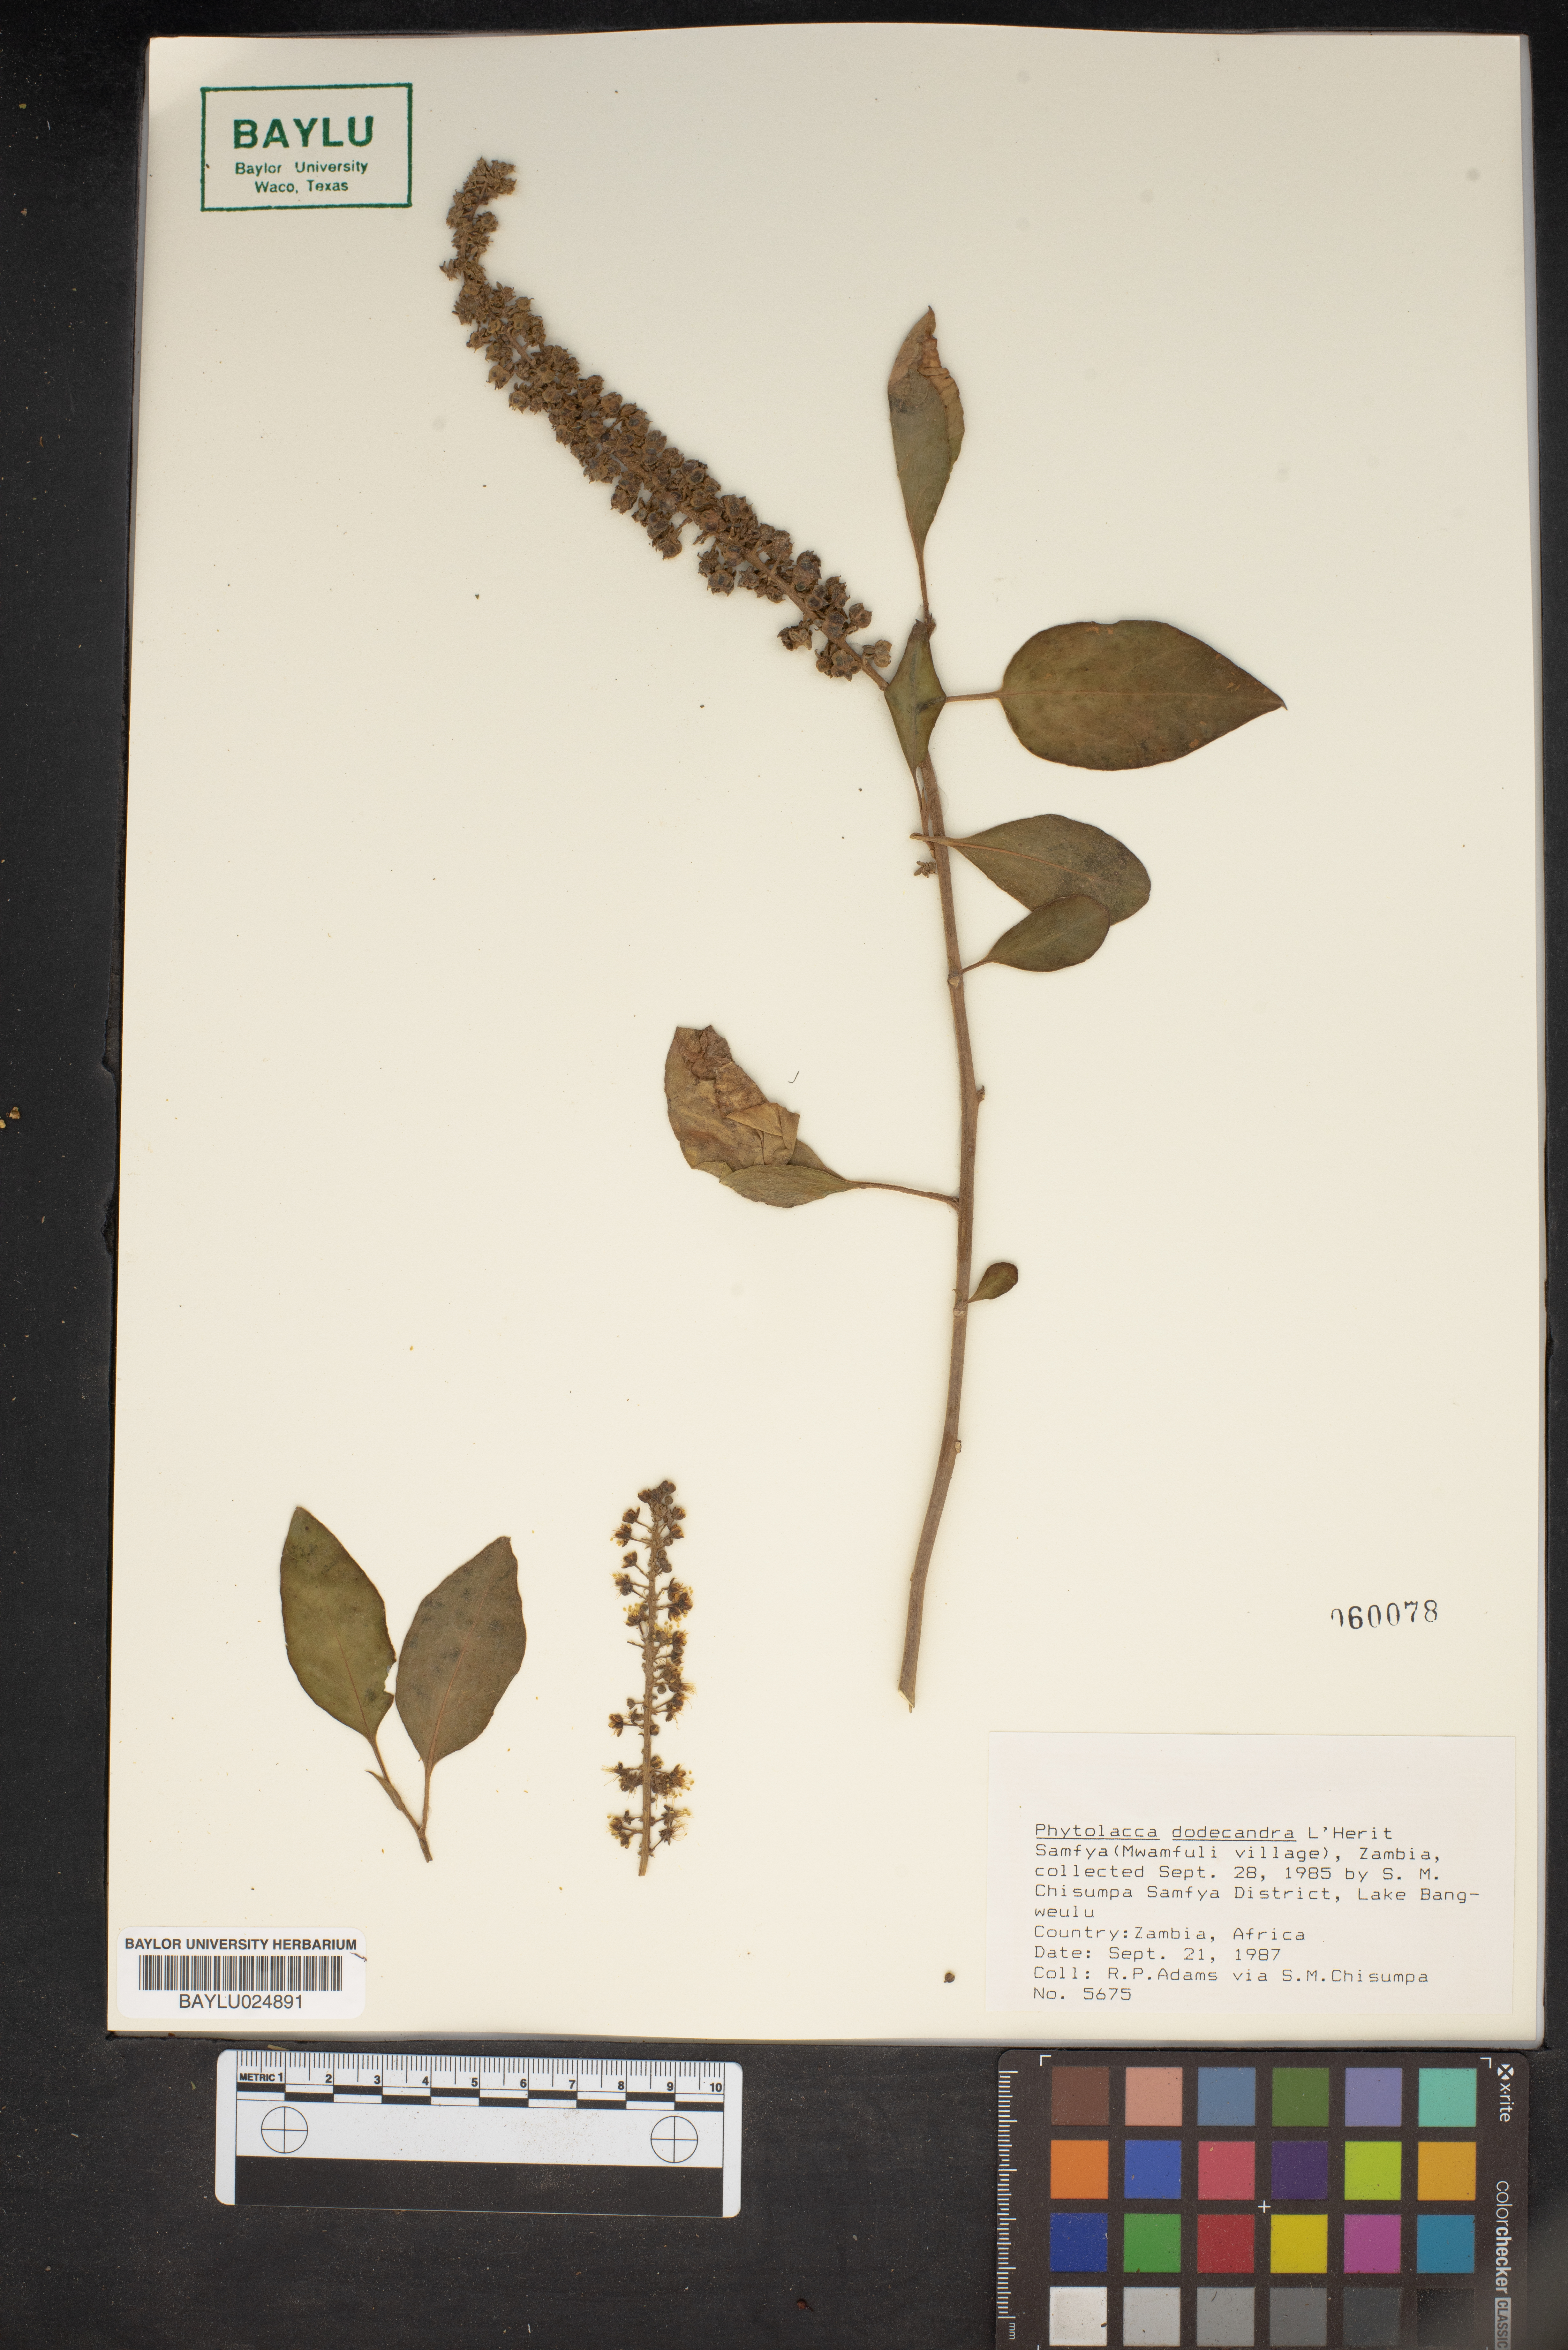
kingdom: Plantae
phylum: Tracheophyta
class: Magnoliopsida
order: Caryophyllales
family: Phytolaccaceae
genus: Phytolacca
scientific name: Phytolacca dodecandra
